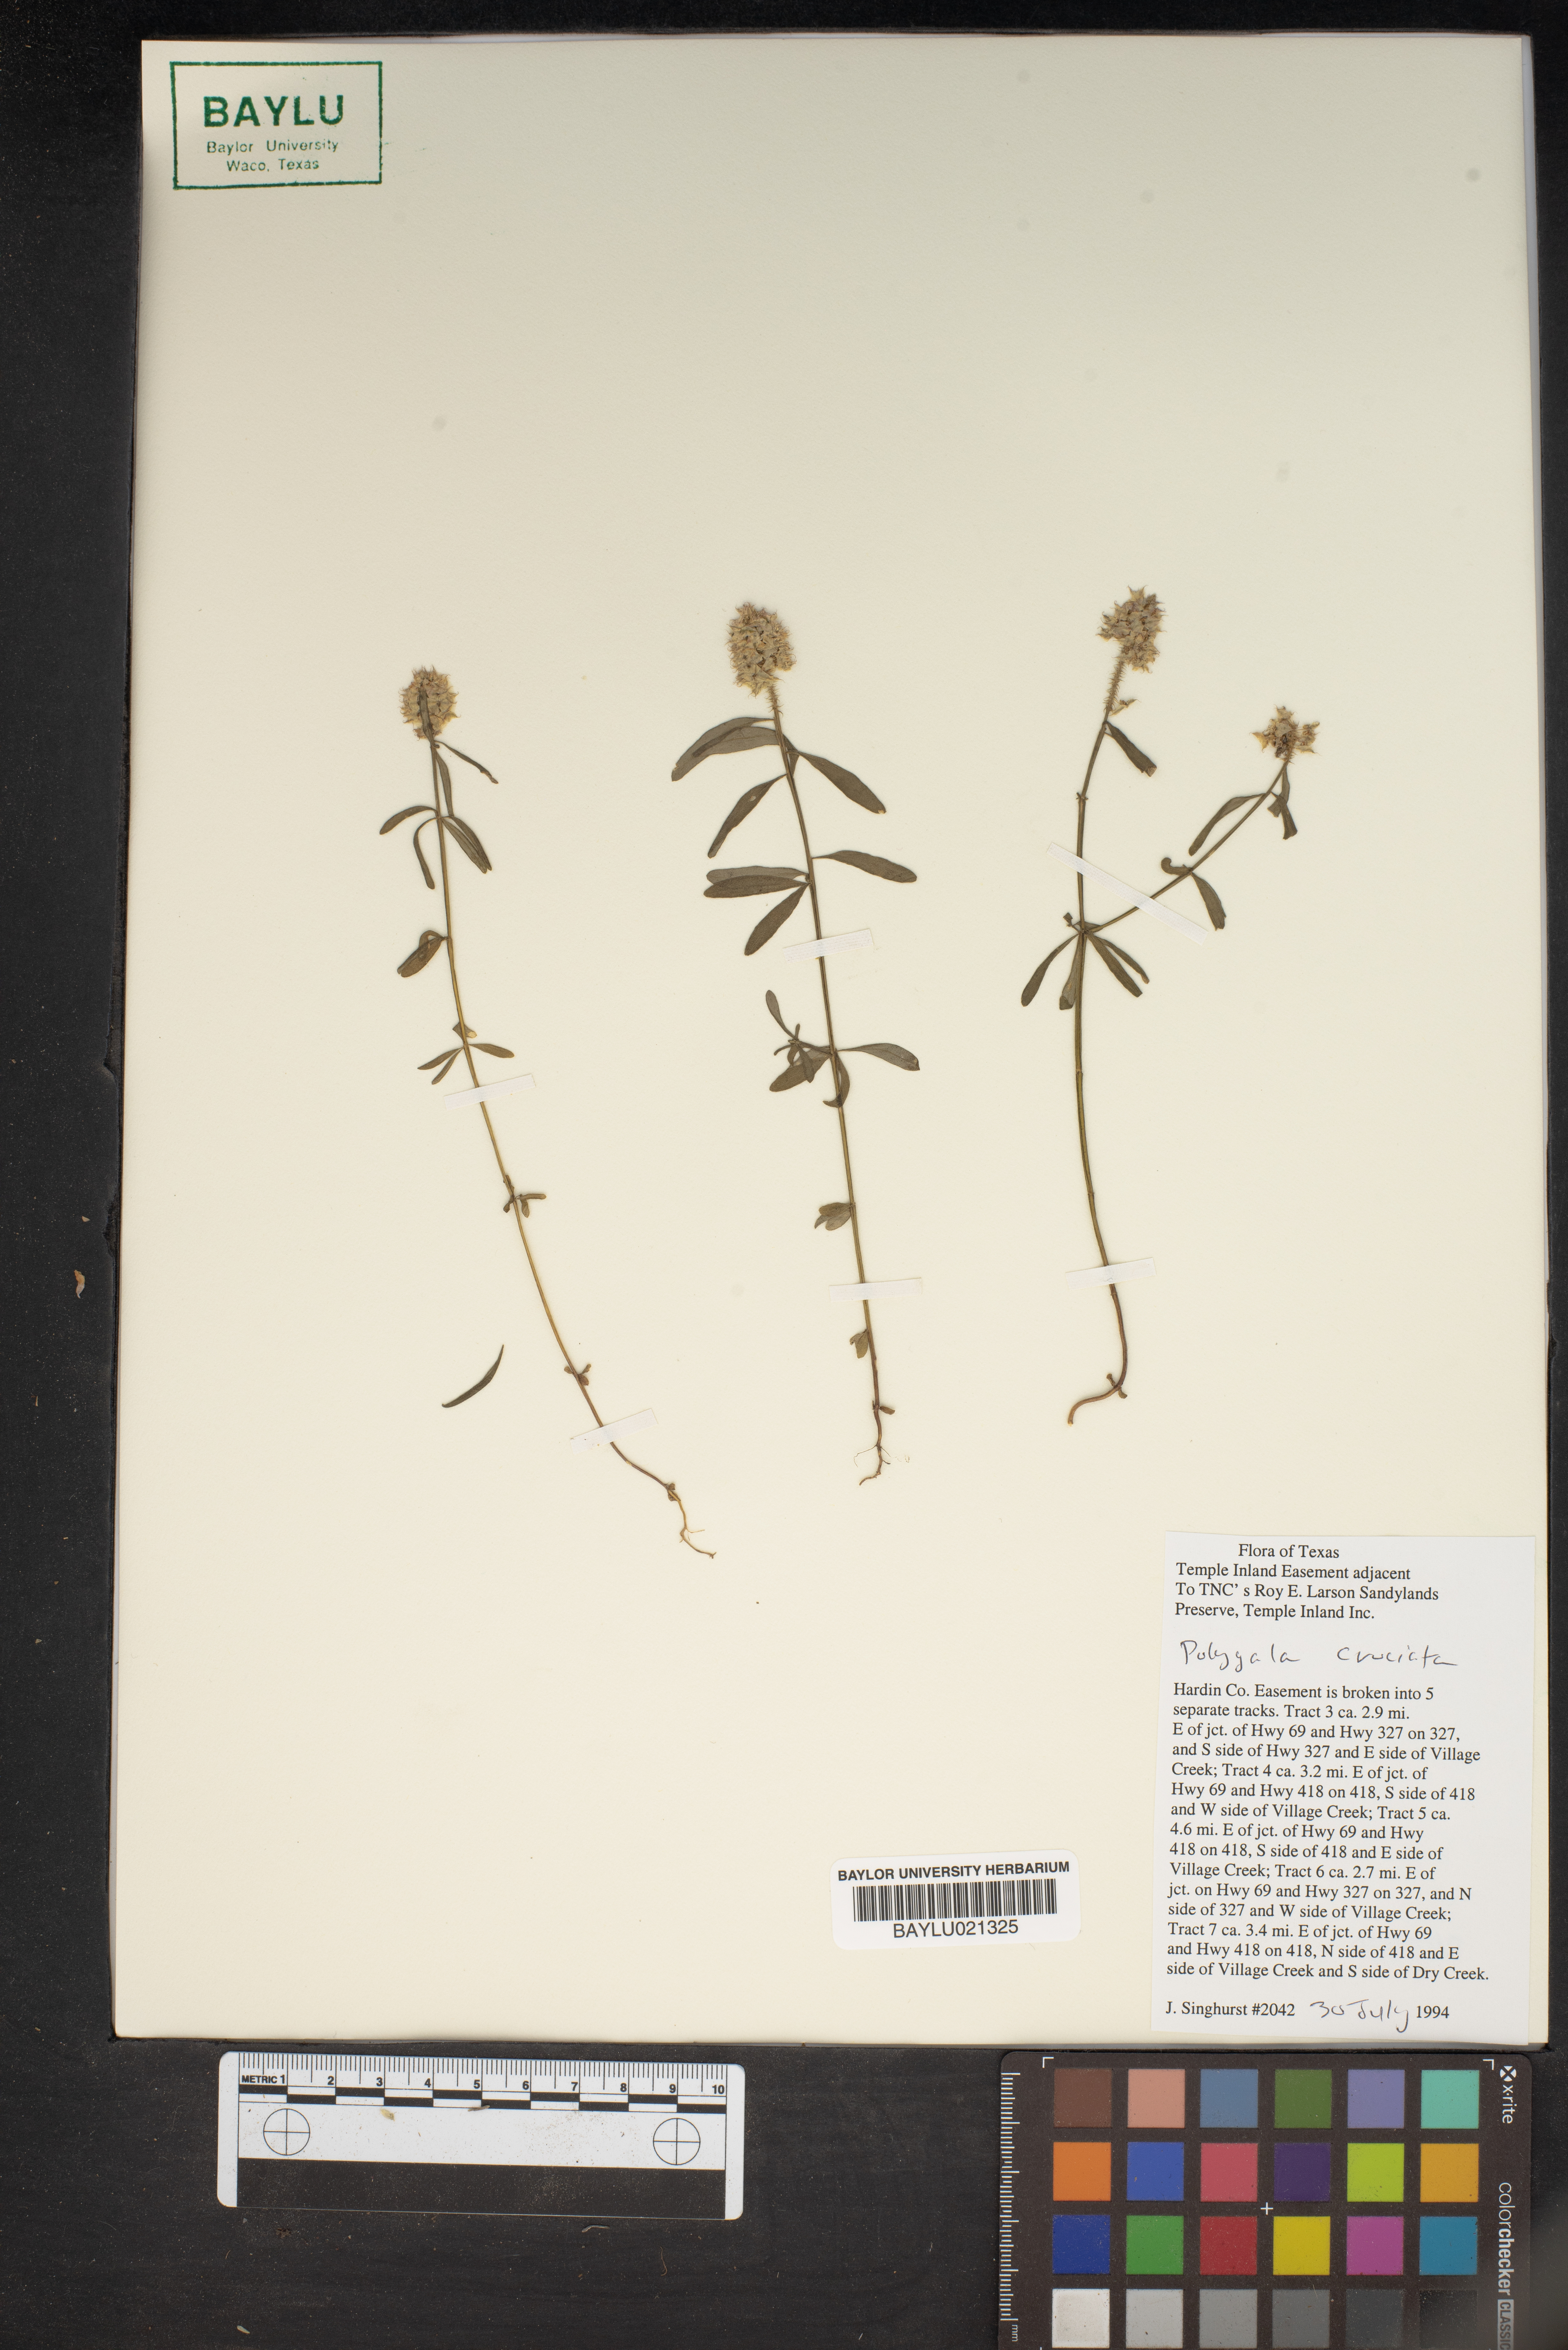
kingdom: Plantae
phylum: Tracheophyta
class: Magnoliopsida
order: Fabales
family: Polygalaceae
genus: Polygala
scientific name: Polygala cruciata
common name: Drumheads
